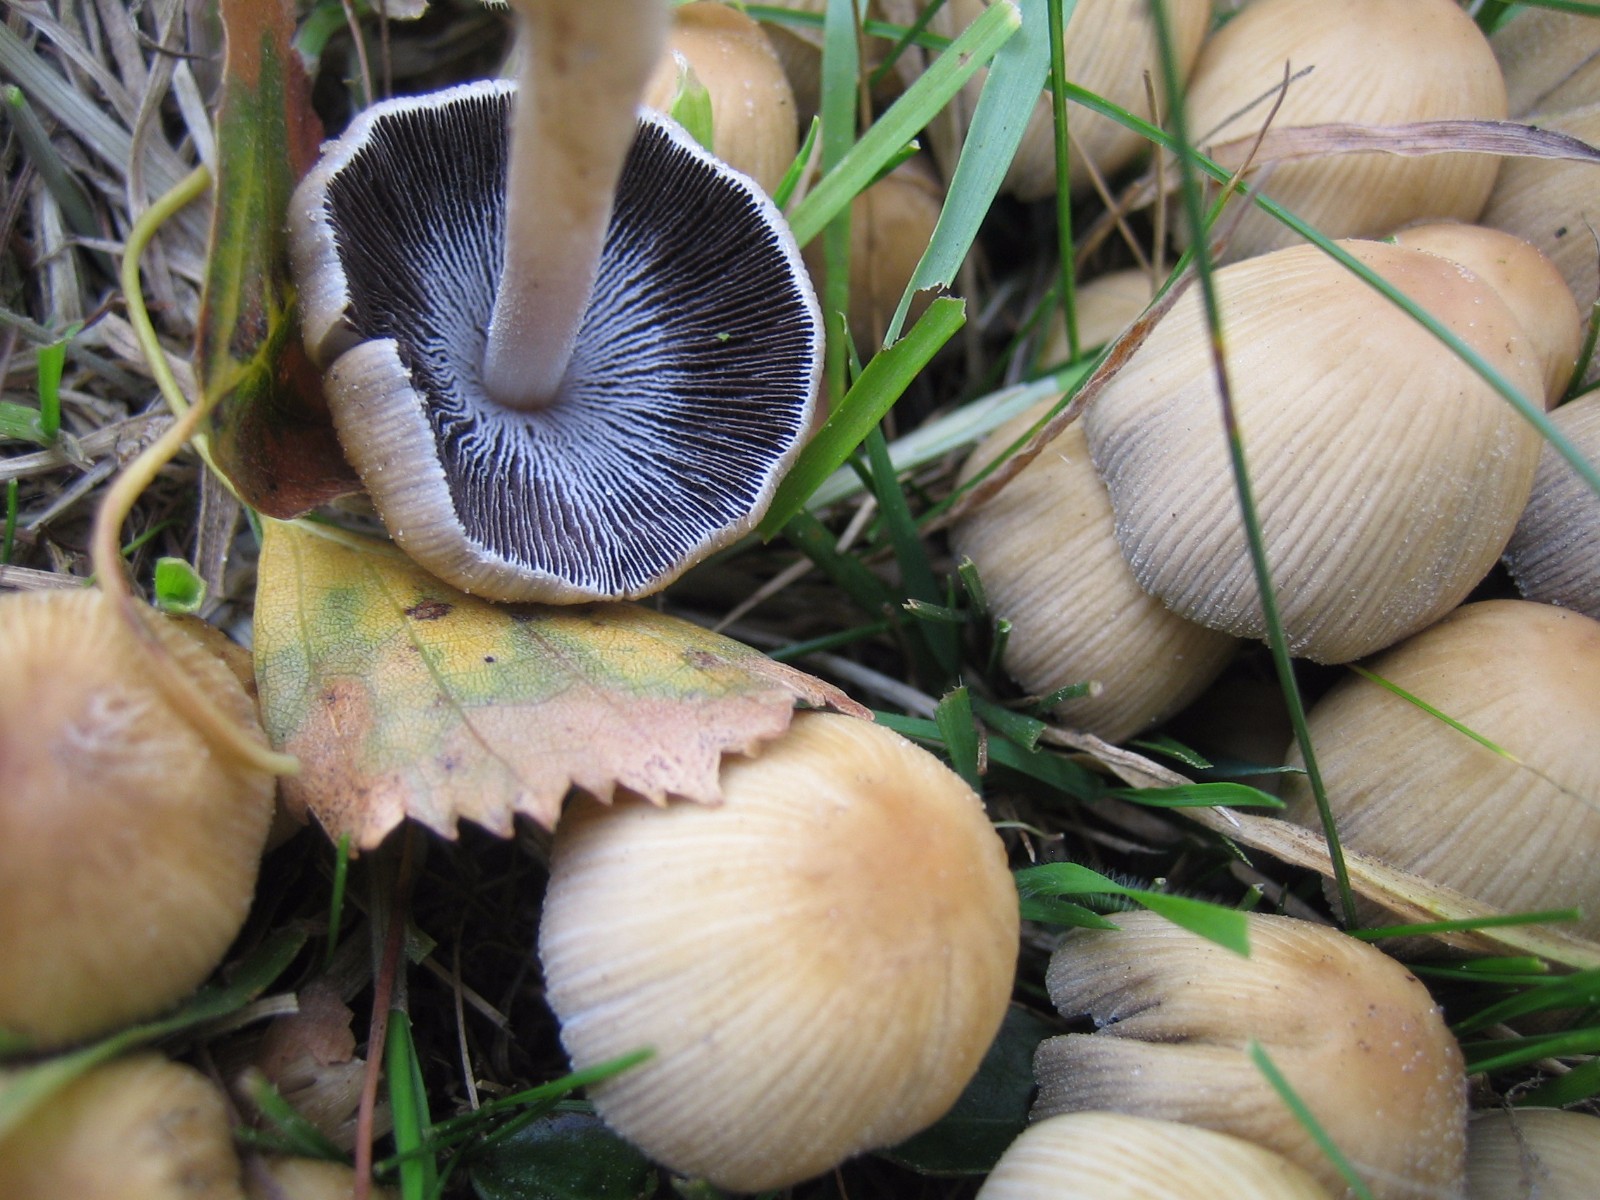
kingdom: Fungi
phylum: Basidiomycota
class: Agaricomycetes
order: Agaricales
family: Psathyrellaceae
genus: Coprinellus
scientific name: Coprinellus micaceus
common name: glimmer-blækhat
